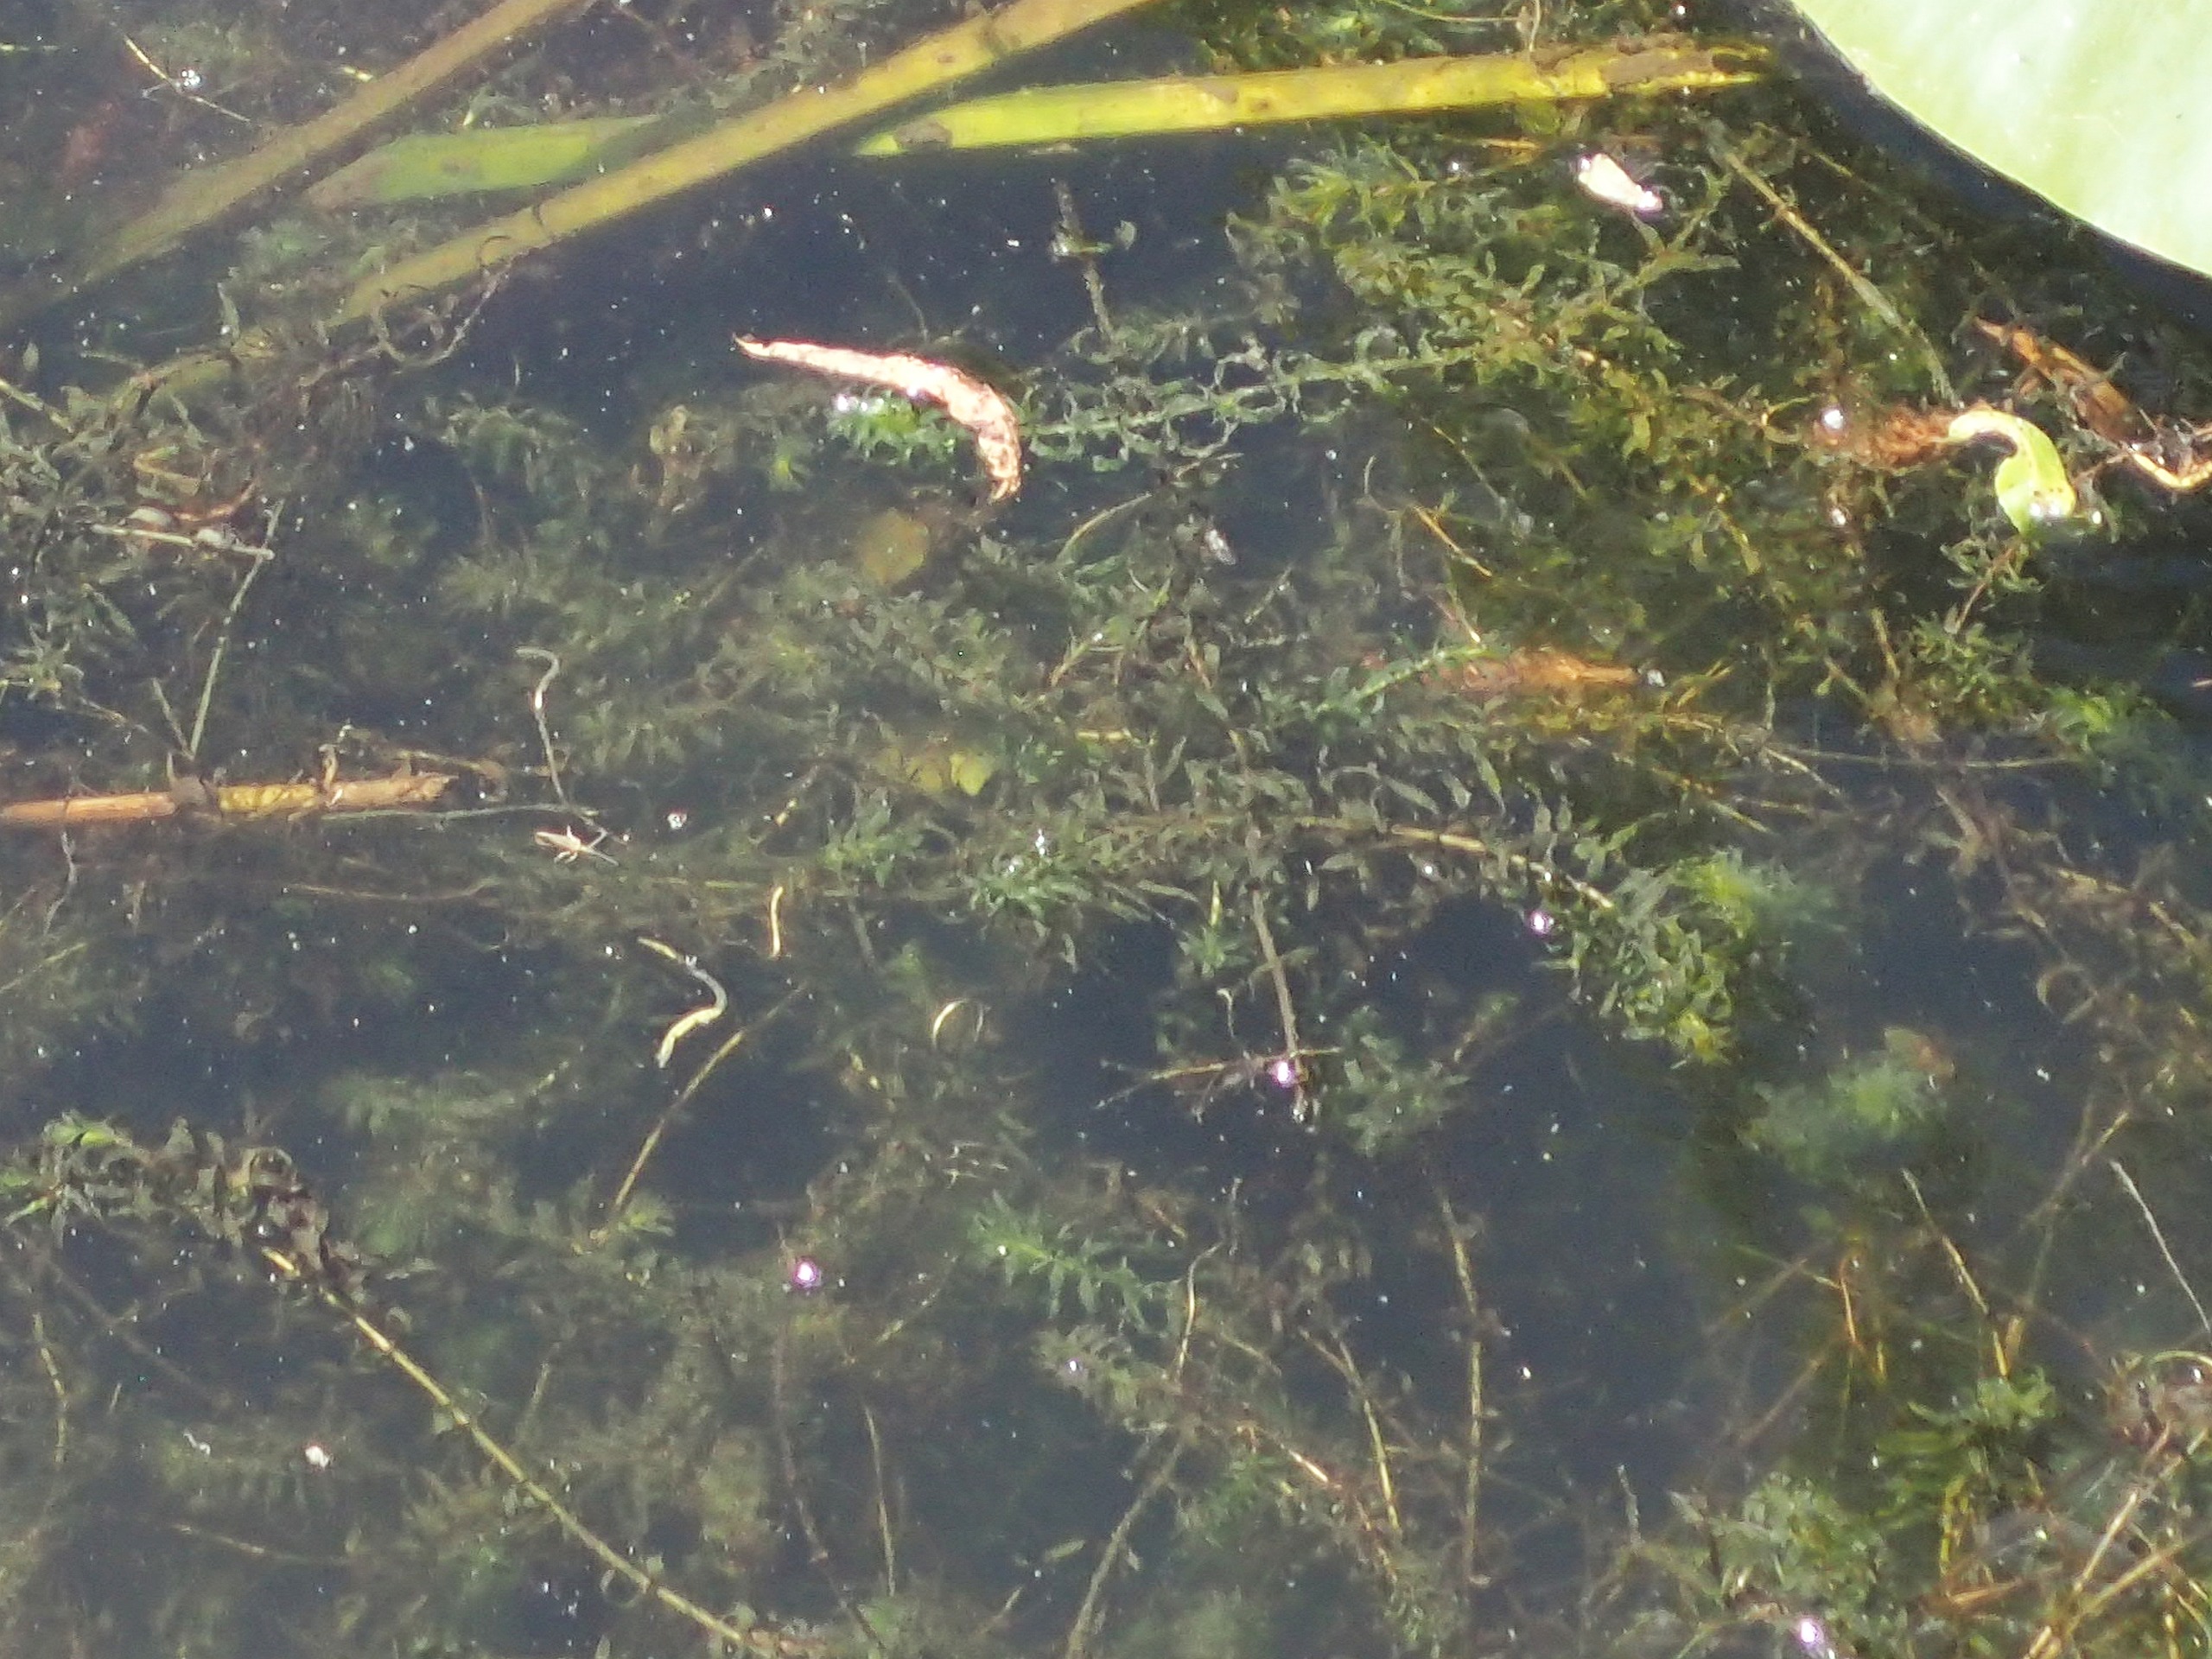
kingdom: Plantae
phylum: Tracheophyta
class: Liliopsida
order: Alismatales
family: Hydrocharitaceae
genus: Elodea
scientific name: Elodea nuttallii
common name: Smalbladet vandpest
